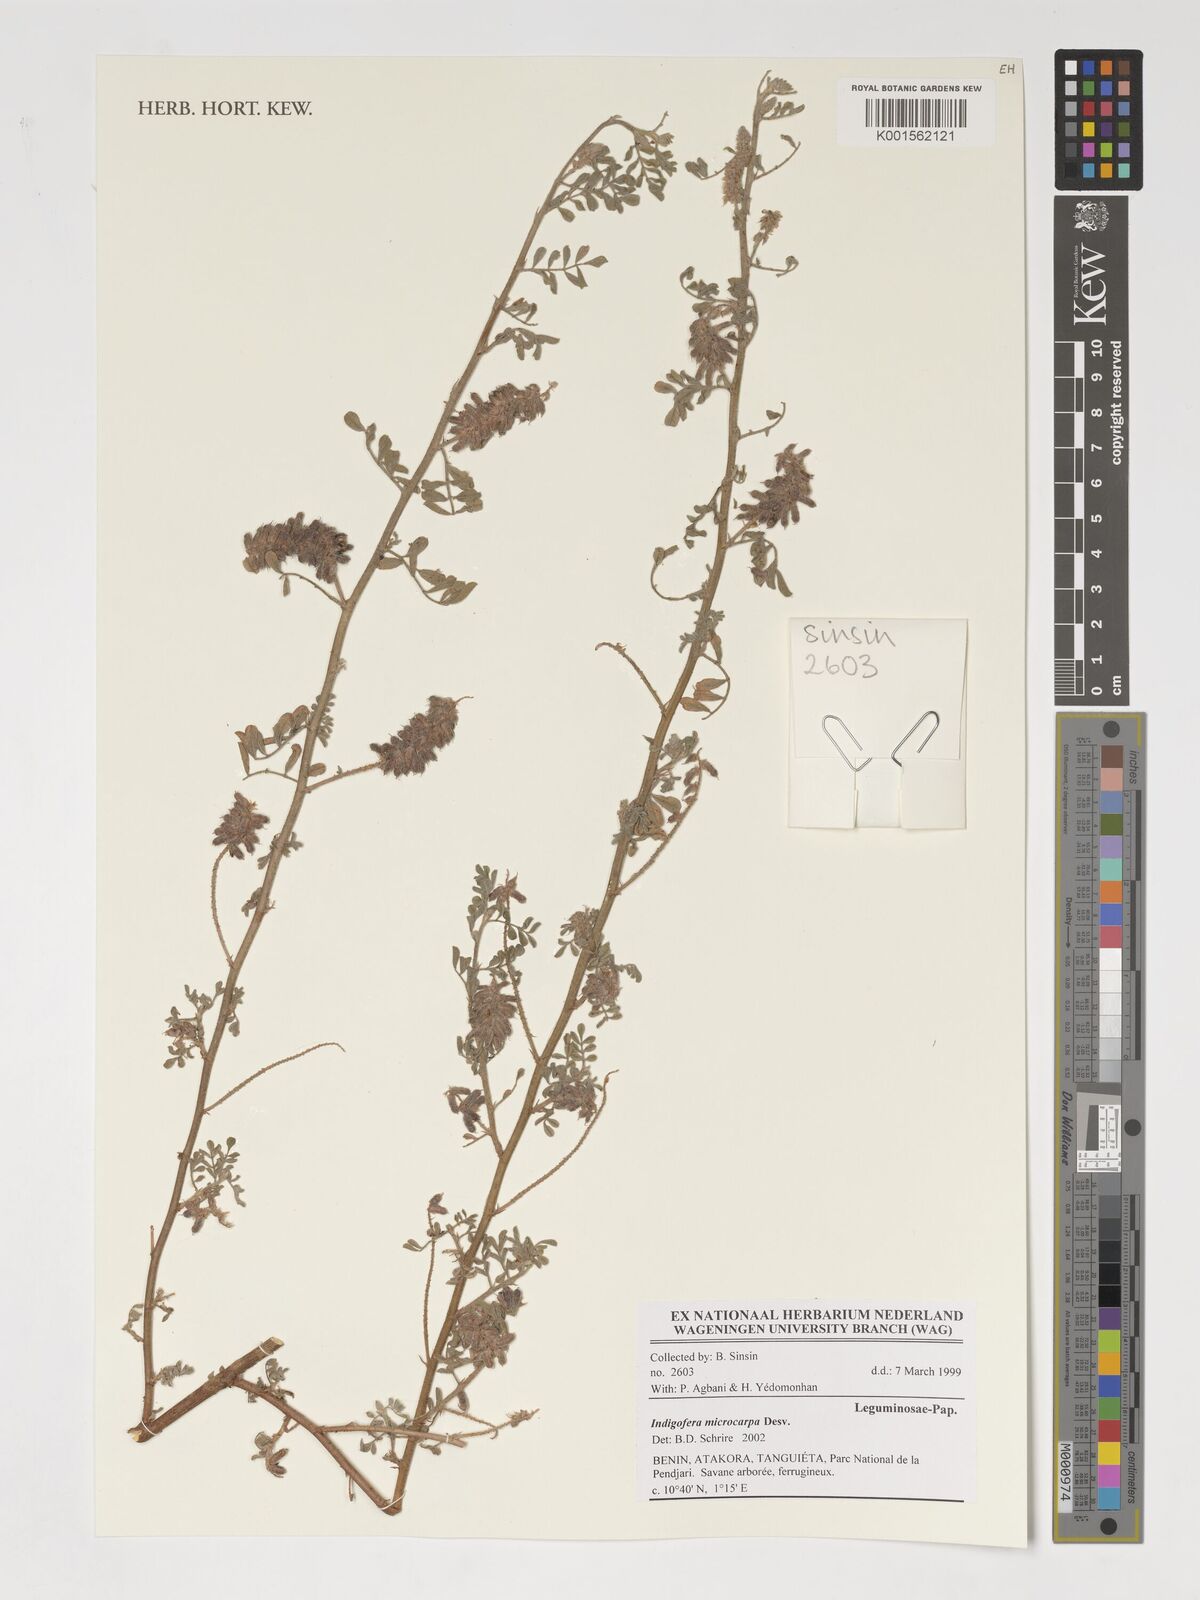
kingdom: Plantae
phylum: Tracheophyta
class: Magnoliopsida
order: Fabales
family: Fabaceae
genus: Indigofera
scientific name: Indigofera microcarpa
